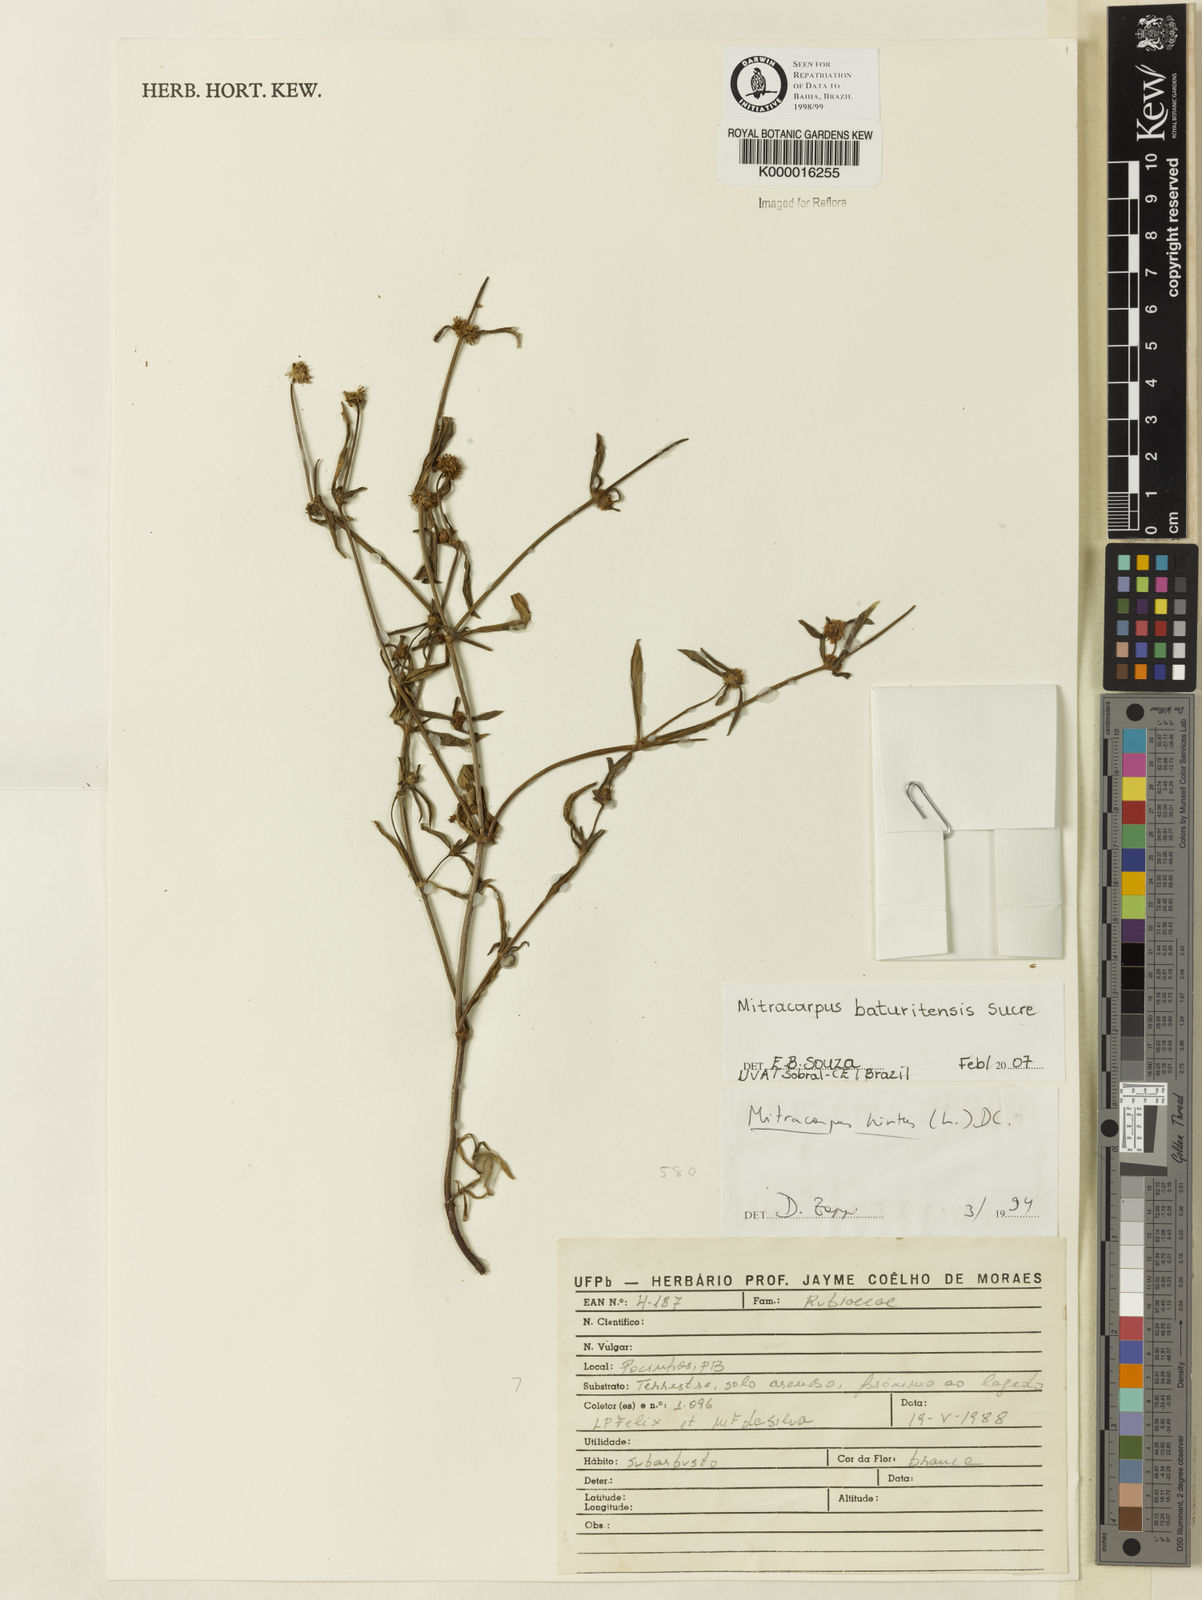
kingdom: Plantae
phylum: Tracheophyta
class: Magnoliopsida
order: Gentianales
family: Rubiaceae
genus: Mitracarpus
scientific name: Mitracarpus baturitensis
